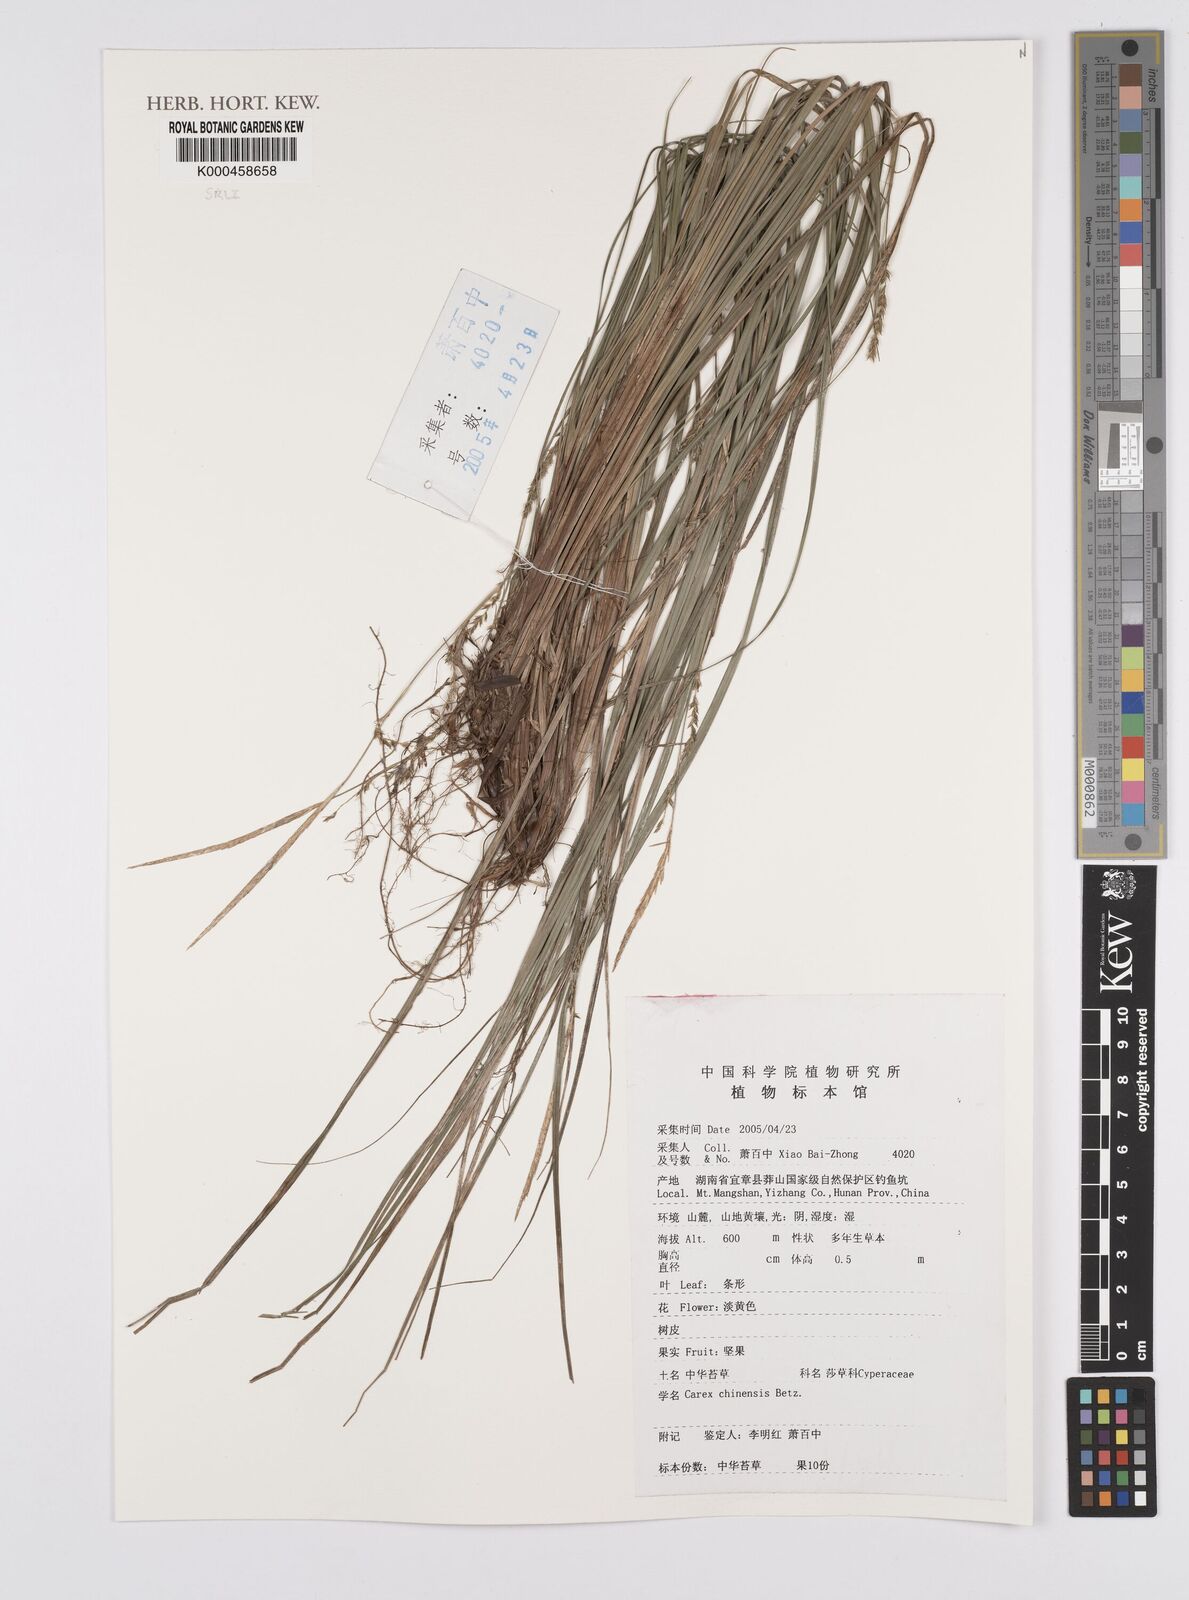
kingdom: Plantae
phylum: Tracheophyta
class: Liliopsida
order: Poales
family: Cyperaceae
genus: Carex
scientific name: Carex chinensis
